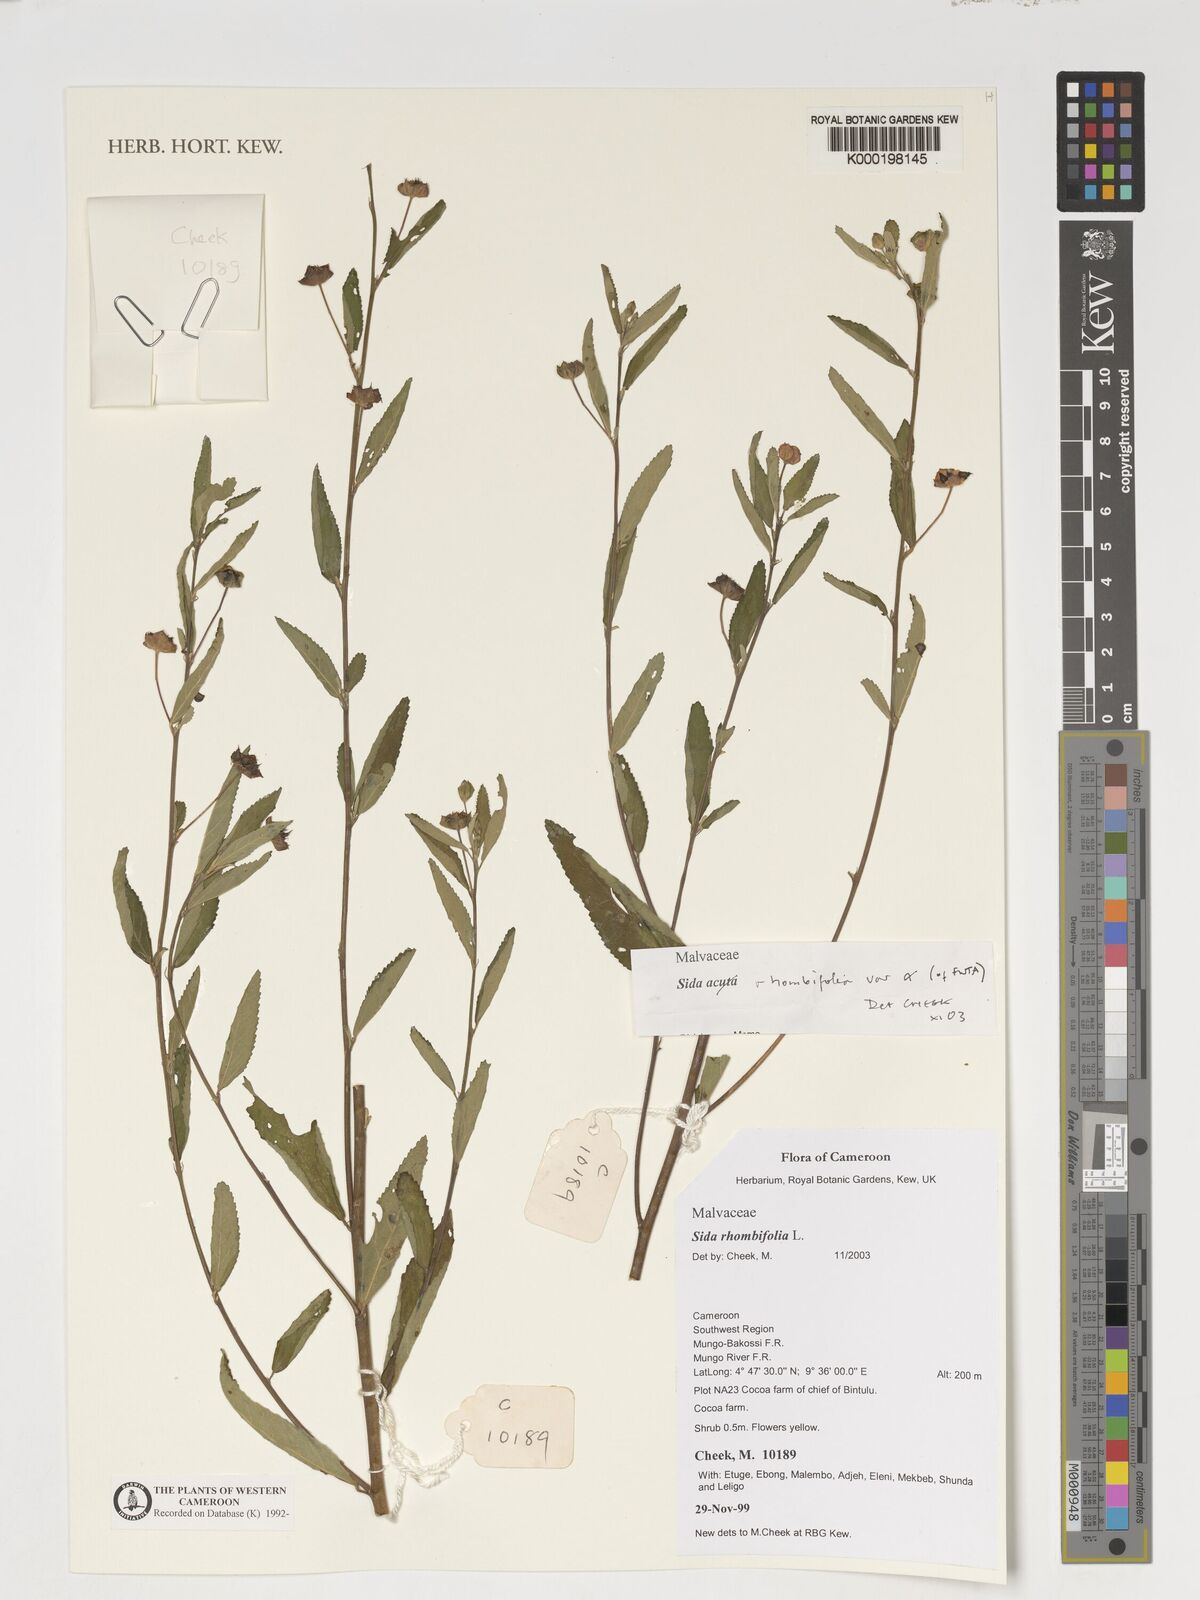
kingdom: Plantae
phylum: Tracheophyta
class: Magnoliopsida
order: Malvales
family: Malvaceae
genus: Sida
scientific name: Sida rhombifolia
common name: Queensland-hemp
